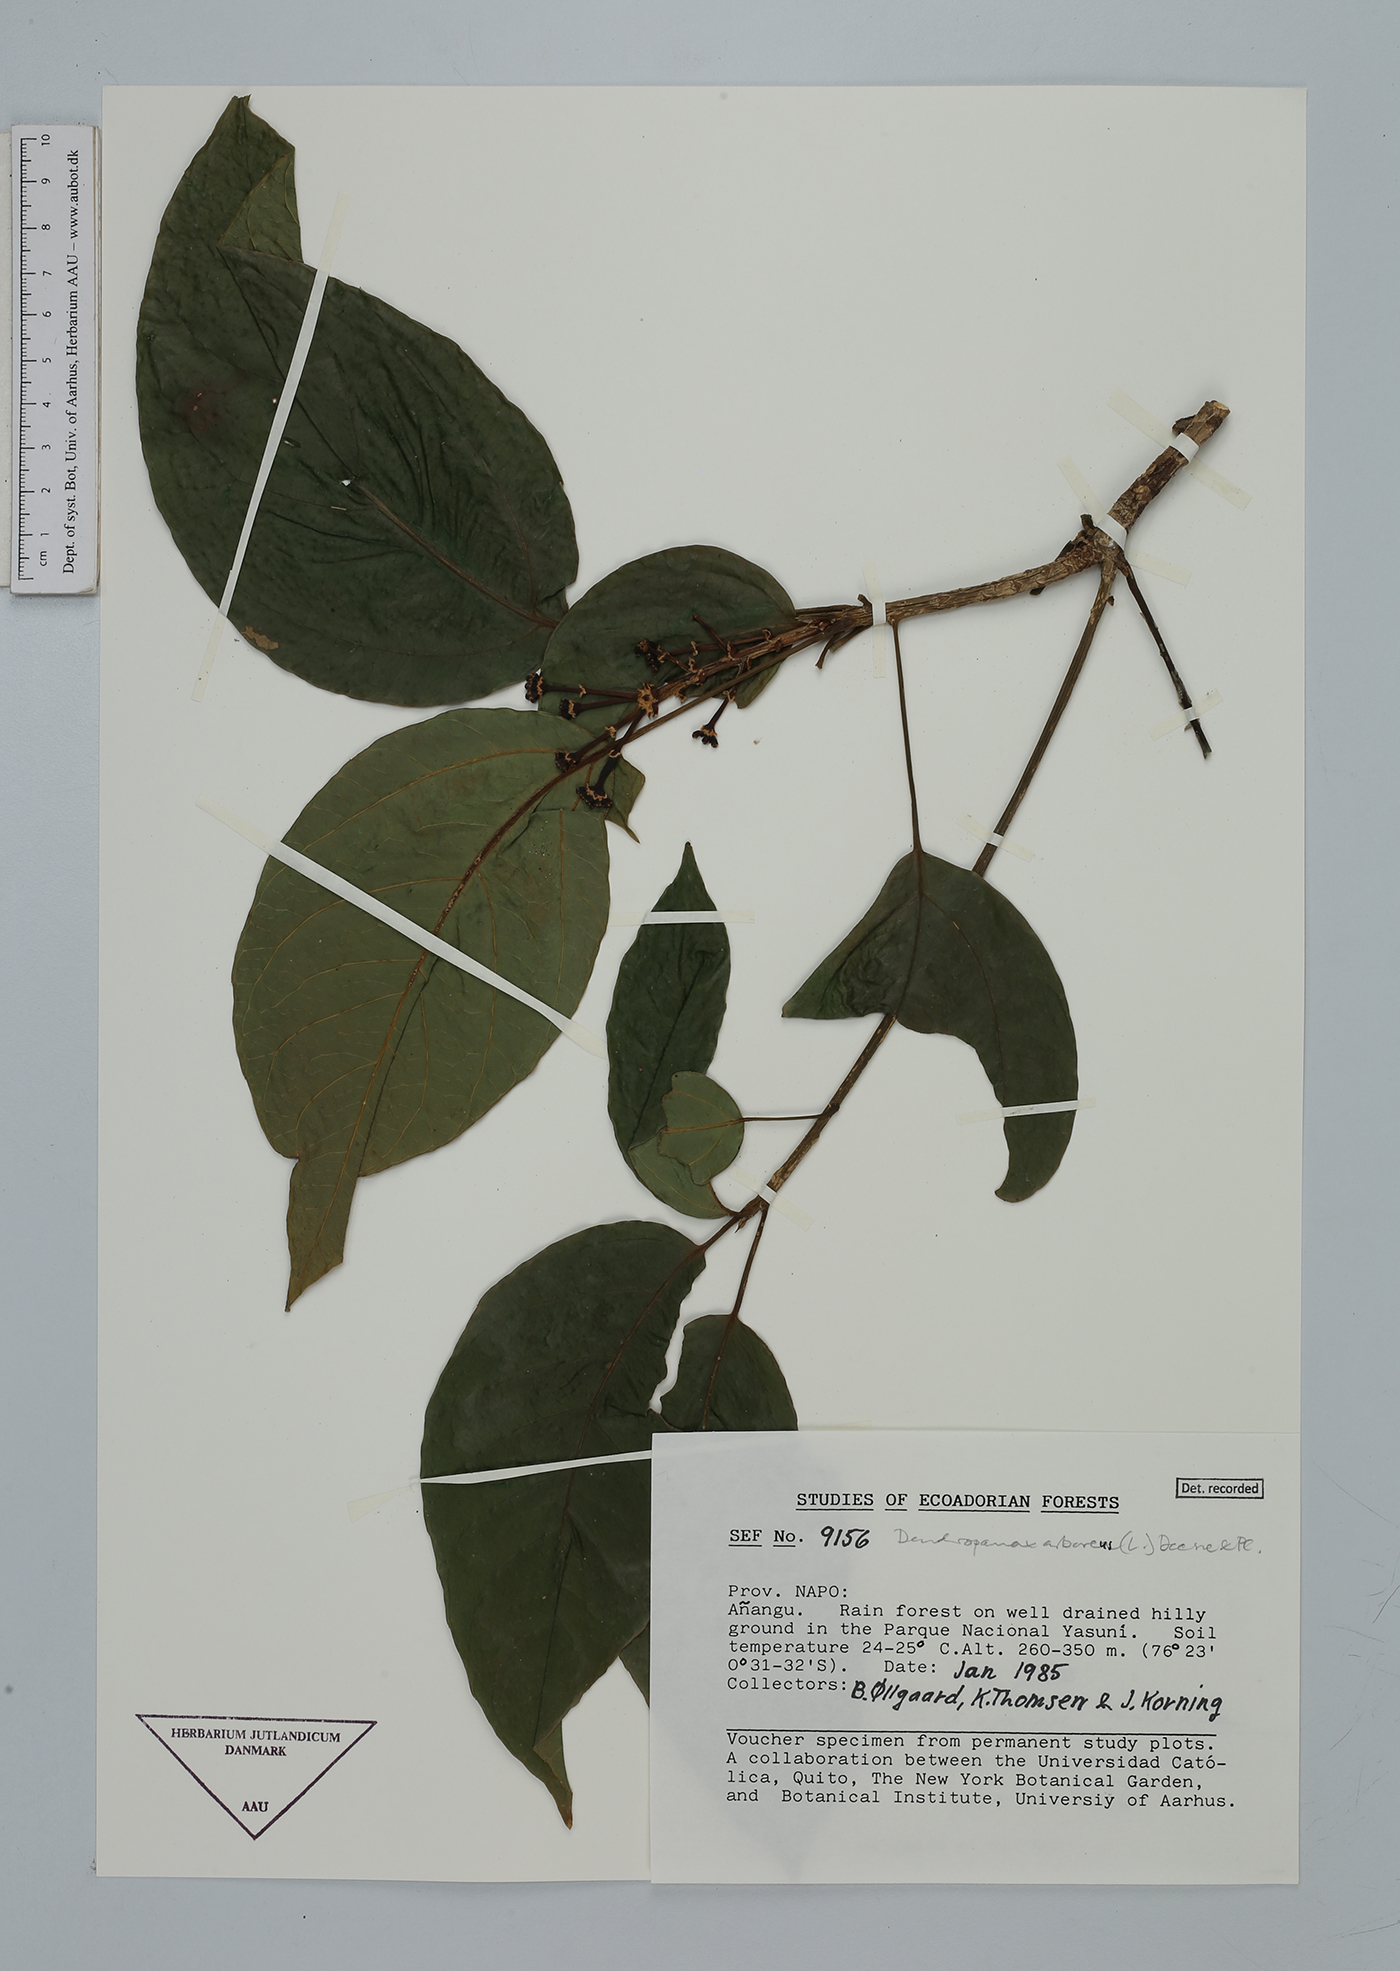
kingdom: Plantae
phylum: Tracheophyta
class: Magnoliopsida
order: Apiales
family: Araliaceae
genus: Dendropanax
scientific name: Dendropanax arboreus
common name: Potato-wood
